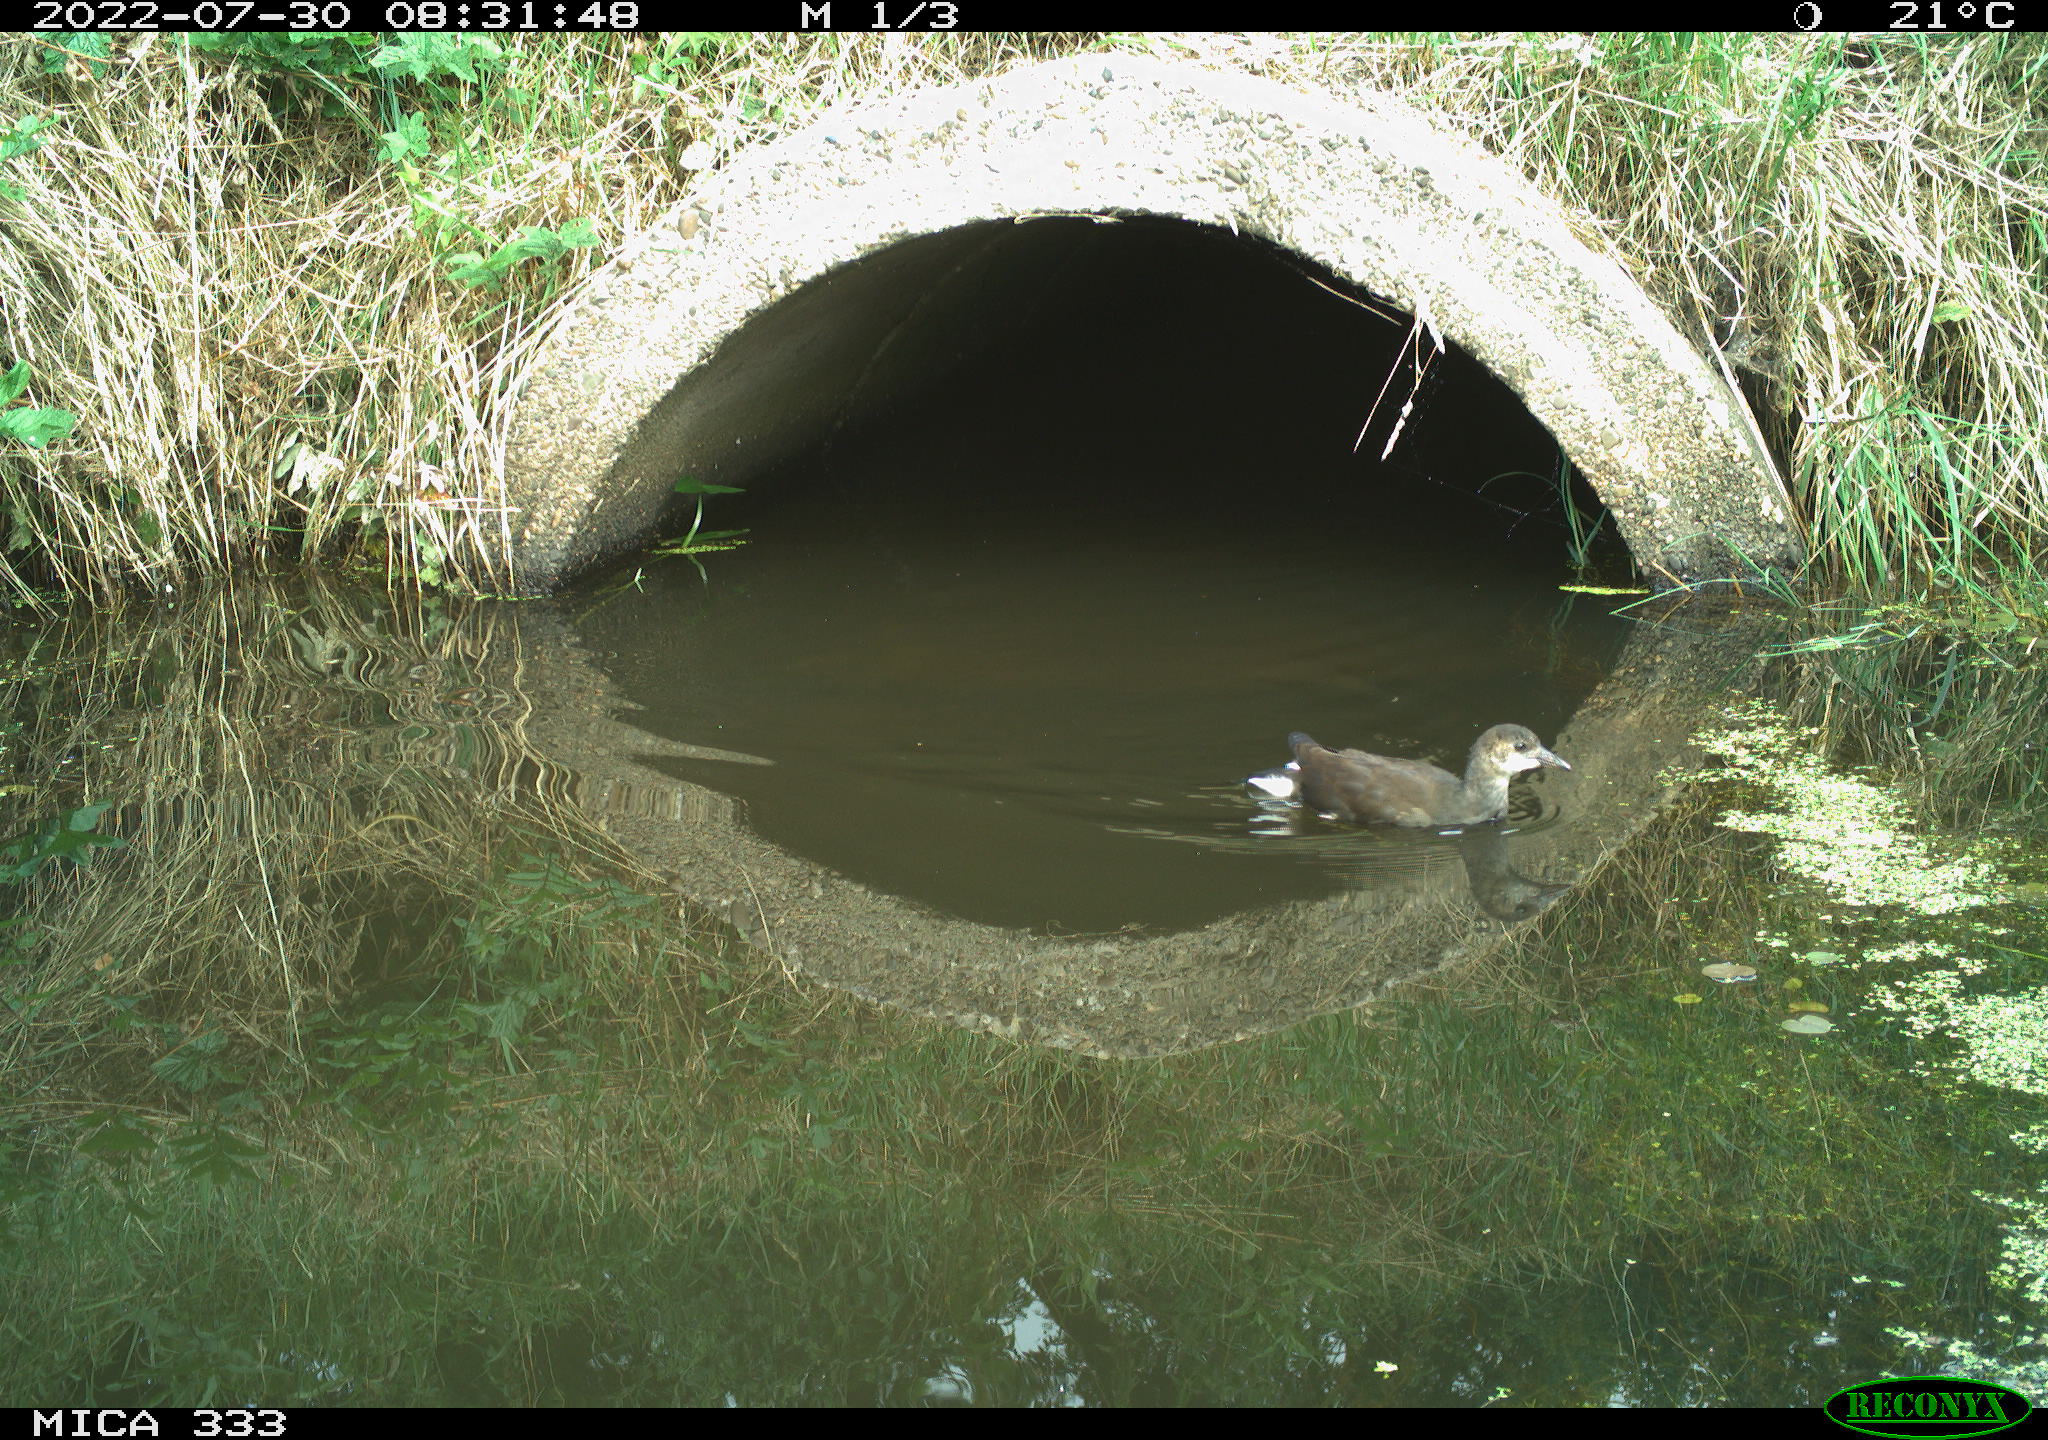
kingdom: Animalia
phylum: Chordata
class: Aves
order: Gruiformes
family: Rallidae
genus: Gallinula
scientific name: Gallinula chloropus
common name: Common moorhen
